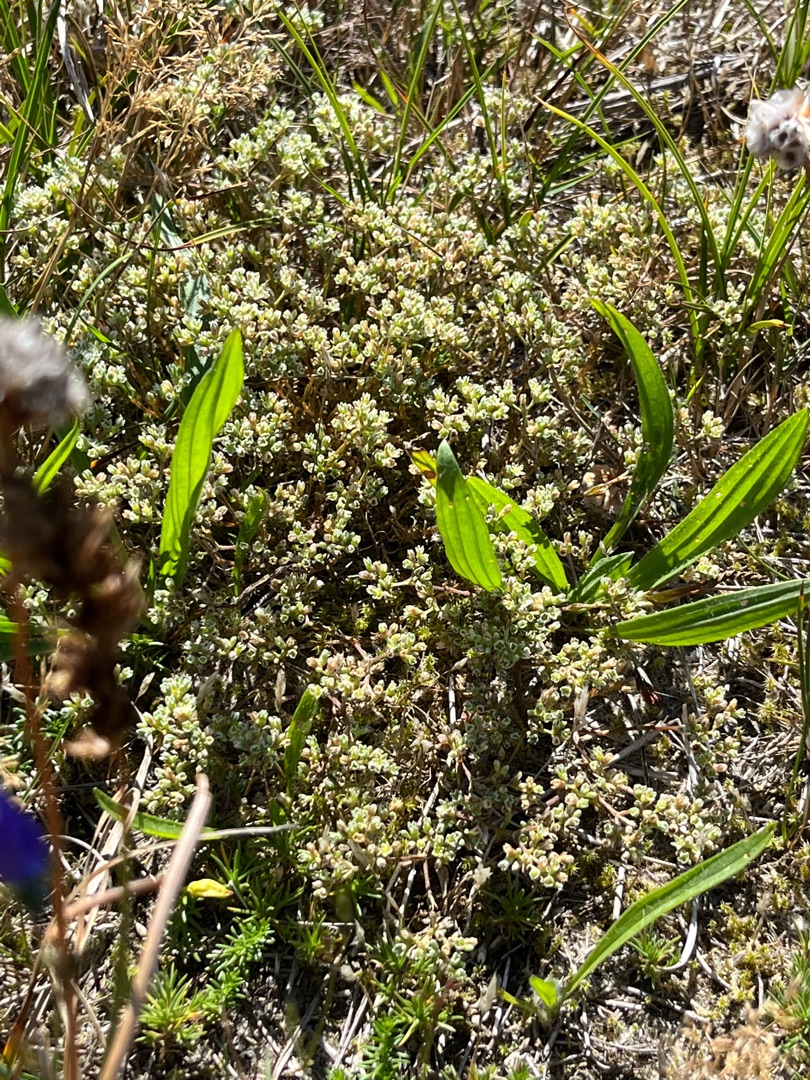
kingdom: Plantae
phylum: Tracheophyta
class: Magnoliopsida
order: Caryophyllales
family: Caryophyllaceae
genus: Scleranthus
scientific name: Scleranthus perennis
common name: Flerårig knavel
